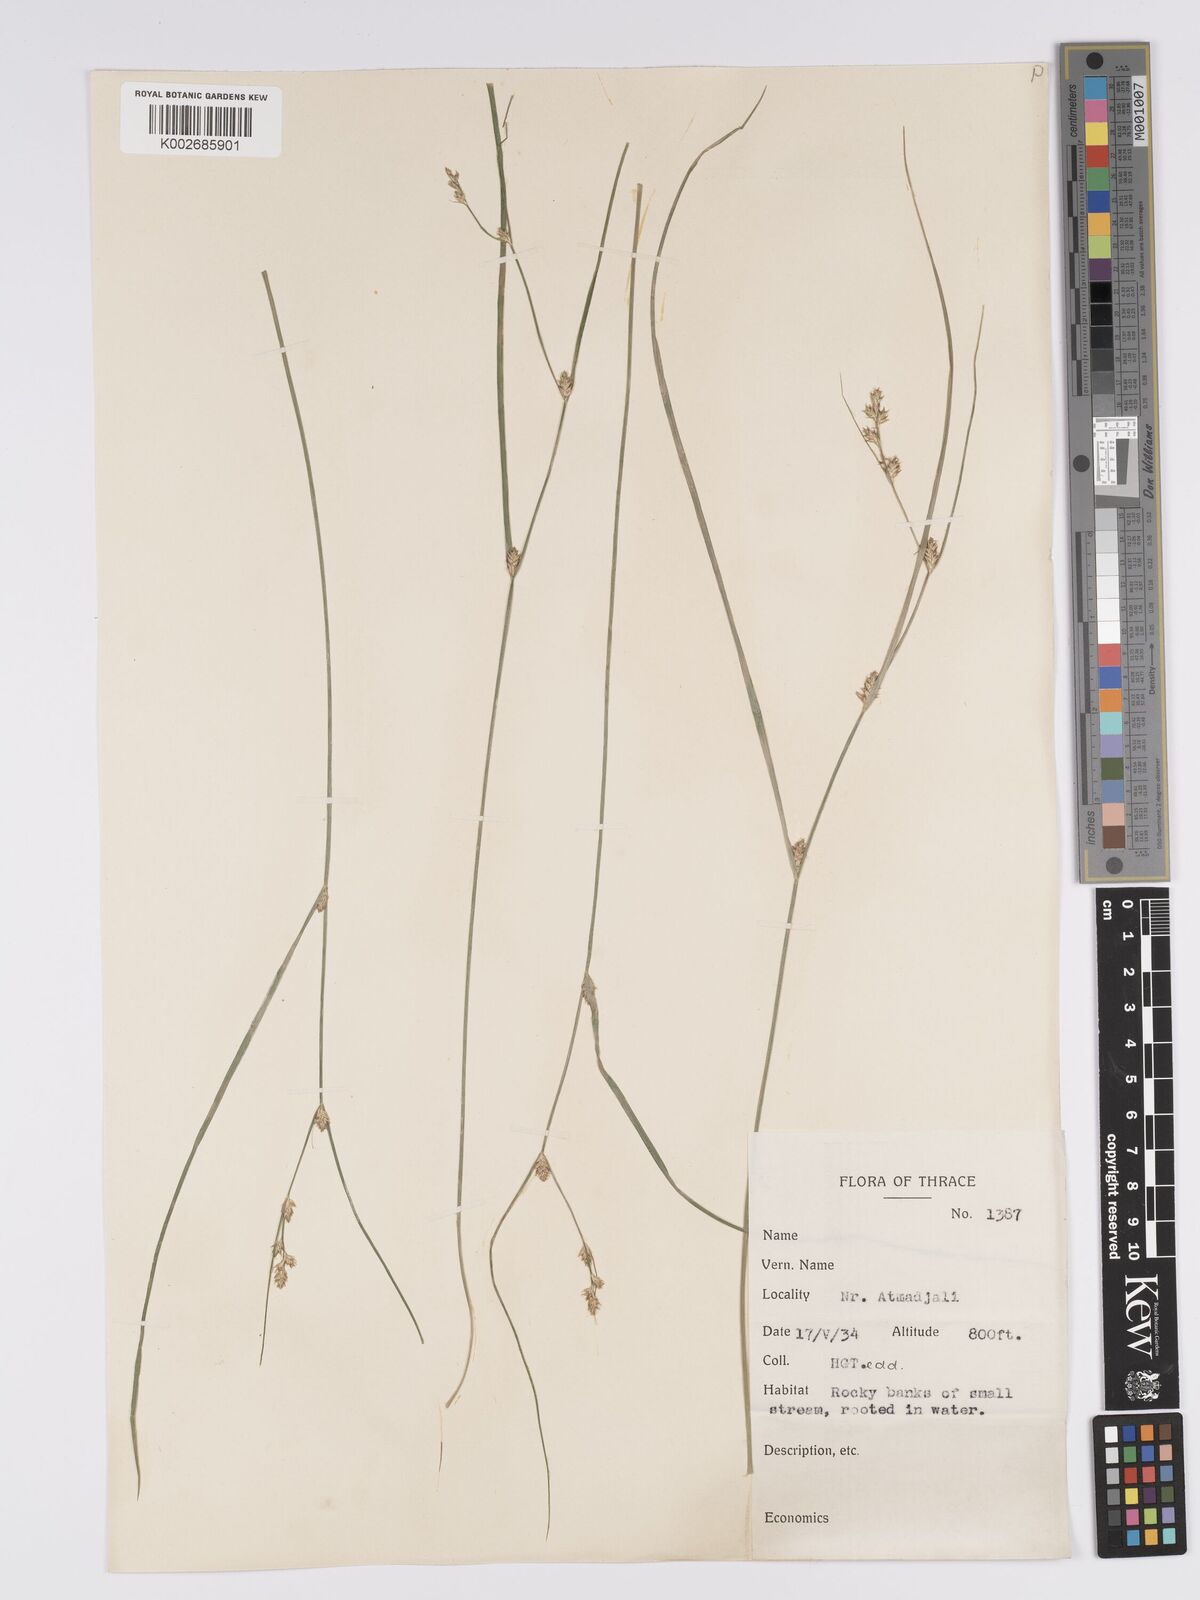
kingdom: Plantae
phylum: Tracheophyta
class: Liliopsida
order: Poales
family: Cyperaceae
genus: Carex
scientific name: Carex remota
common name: Remote sedge
